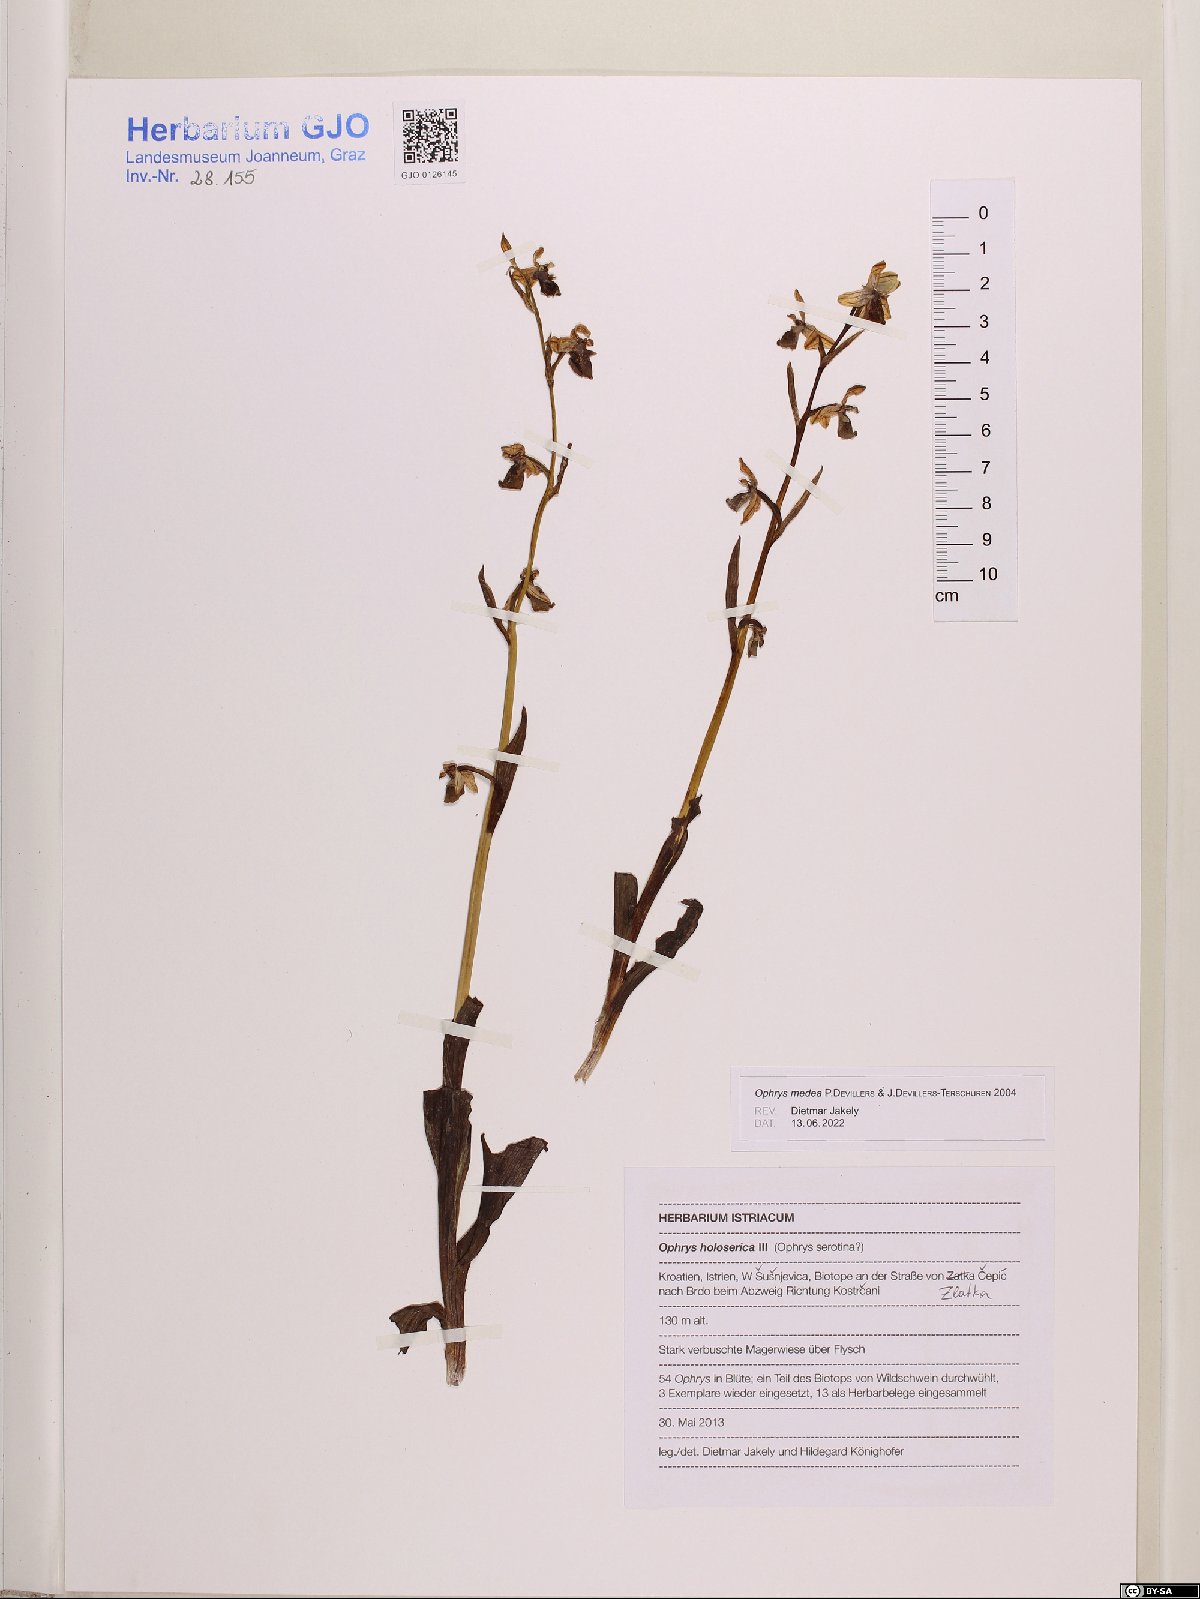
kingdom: Plantae
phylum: Tracheophyta
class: Liliopsida
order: Asparagales
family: Orchidaceae
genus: Ophrys
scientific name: Ophrys holosericea
